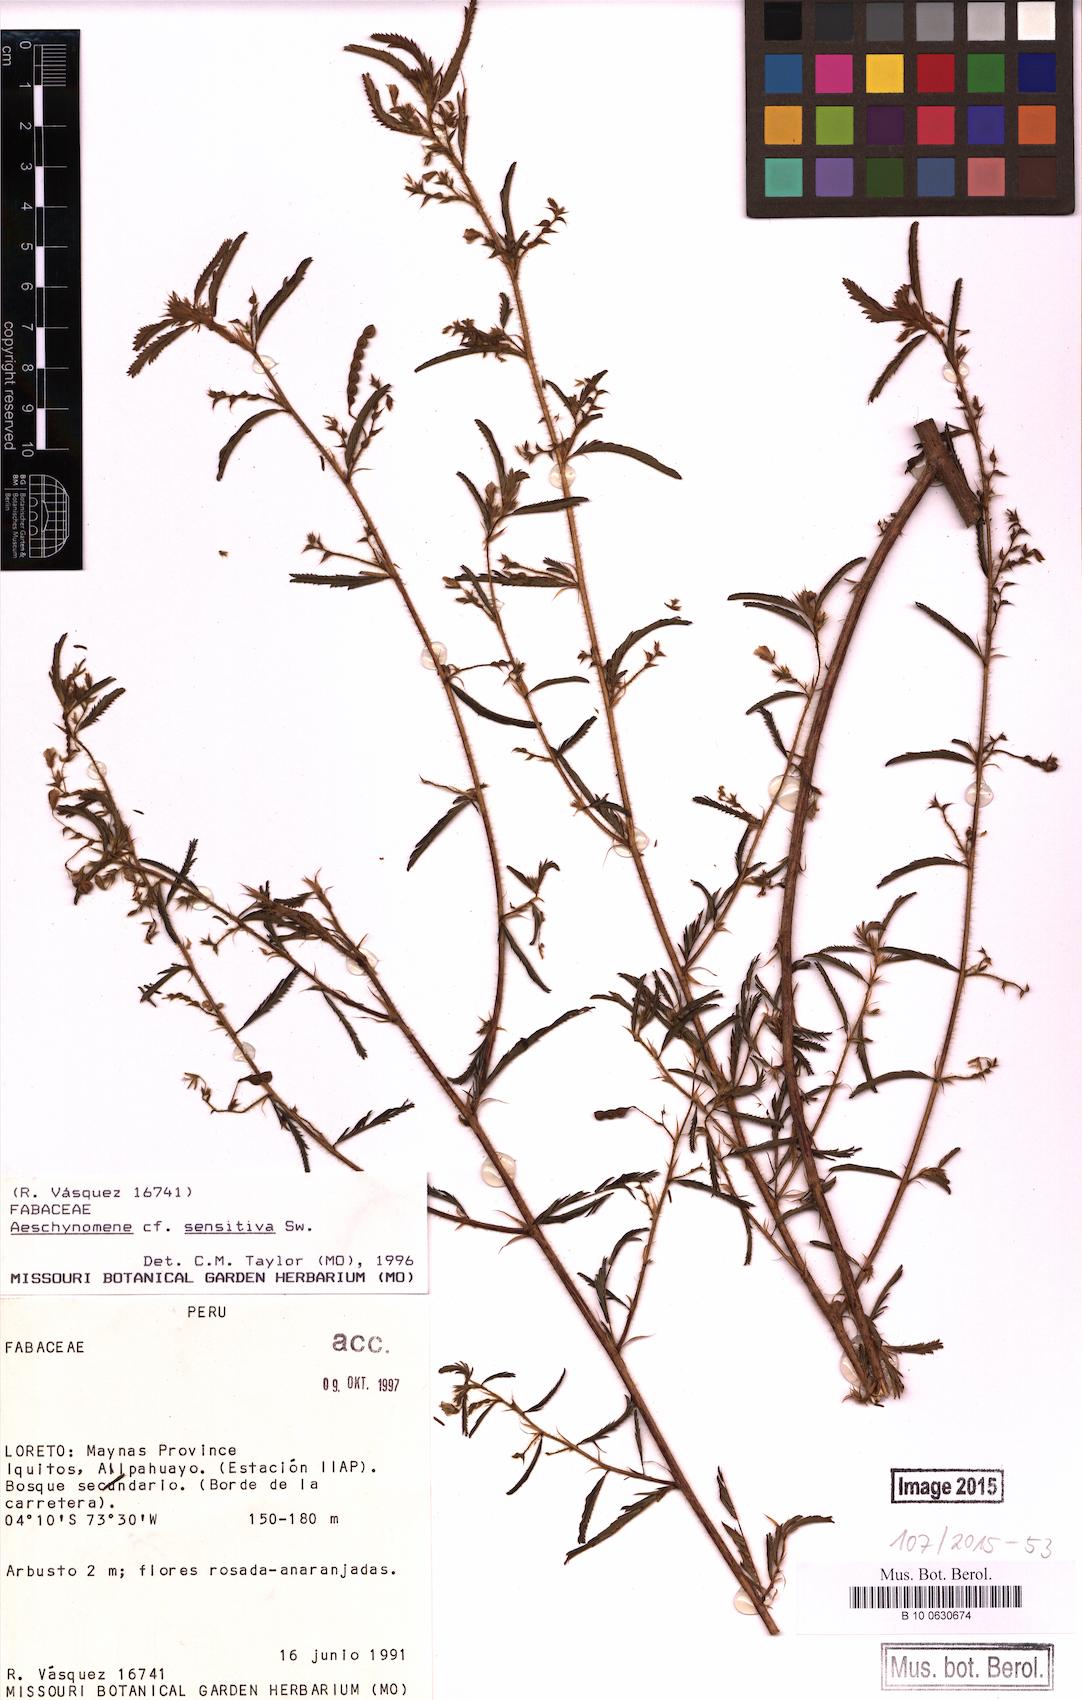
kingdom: Plantae
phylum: Tracheophyta
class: Magnoliopsida
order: Fabales
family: Fabaceae
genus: Aeschynomene
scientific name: Aeschynomene sensitiva
